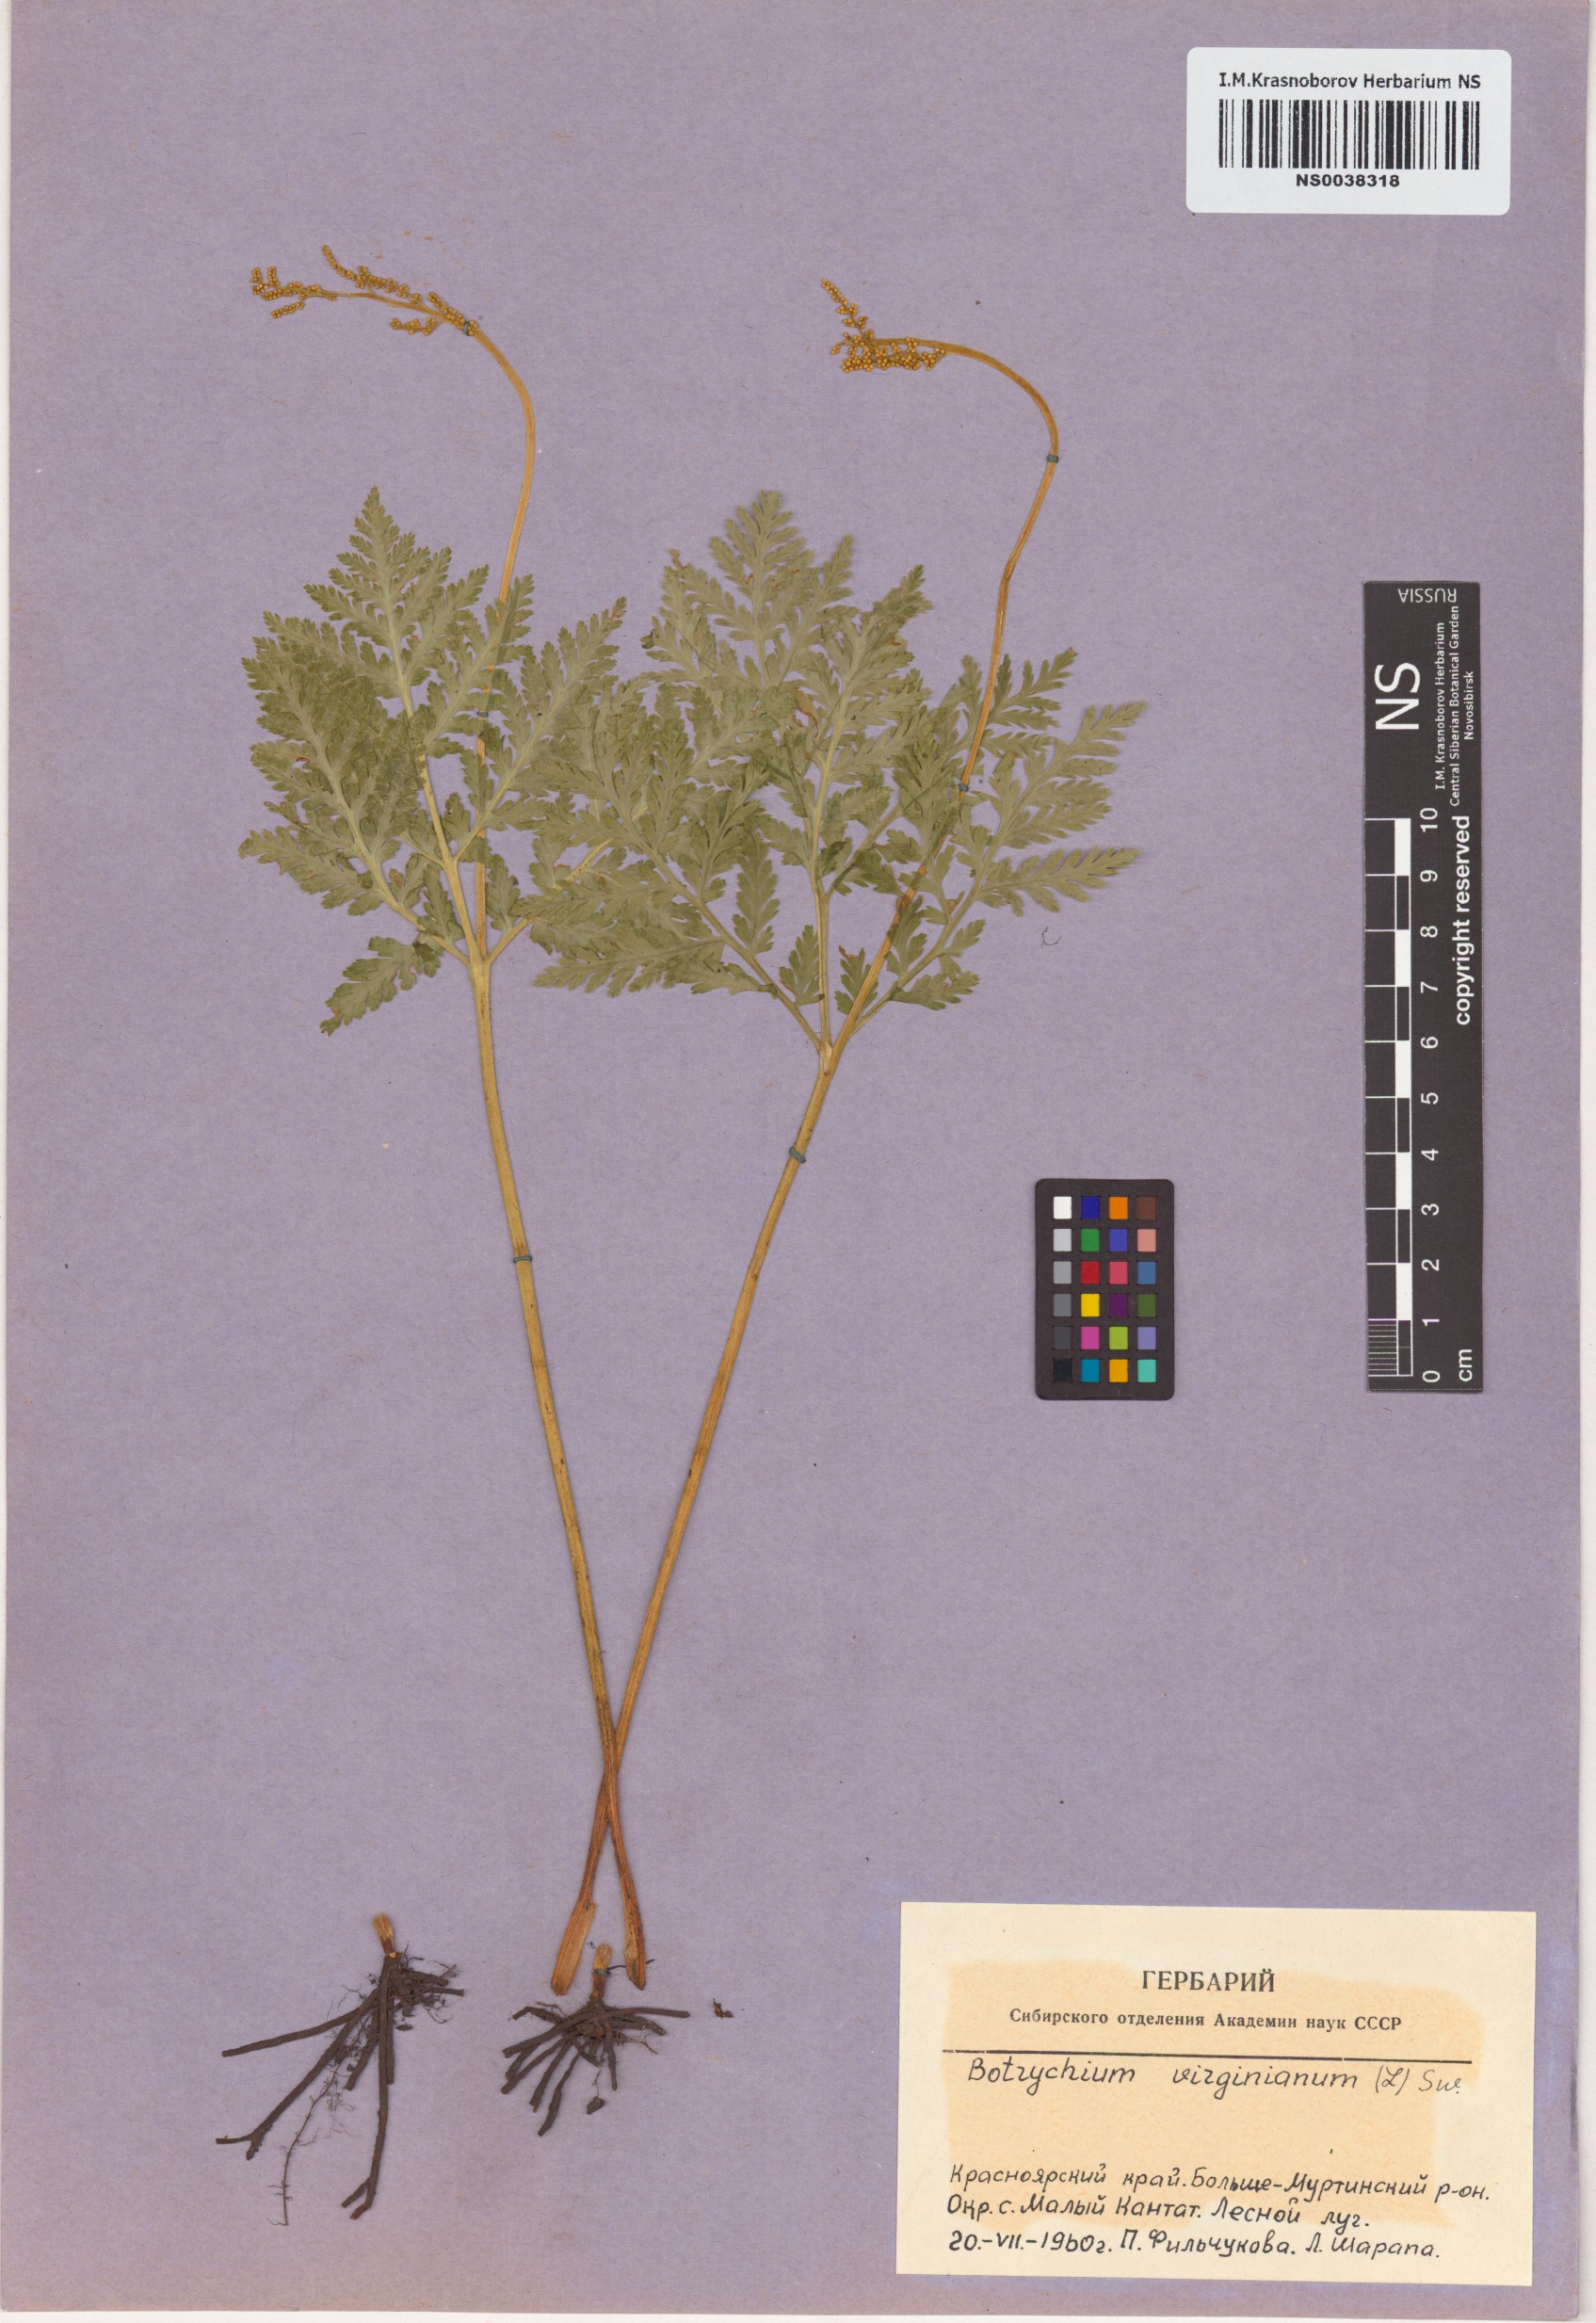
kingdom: Plantae
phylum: Tracheophyta
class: Polypodiopsida
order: Ophioglossales
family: Ophioglossaceae
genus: Botrypus
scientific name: Botrypus virginianus
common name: Common grapefern
